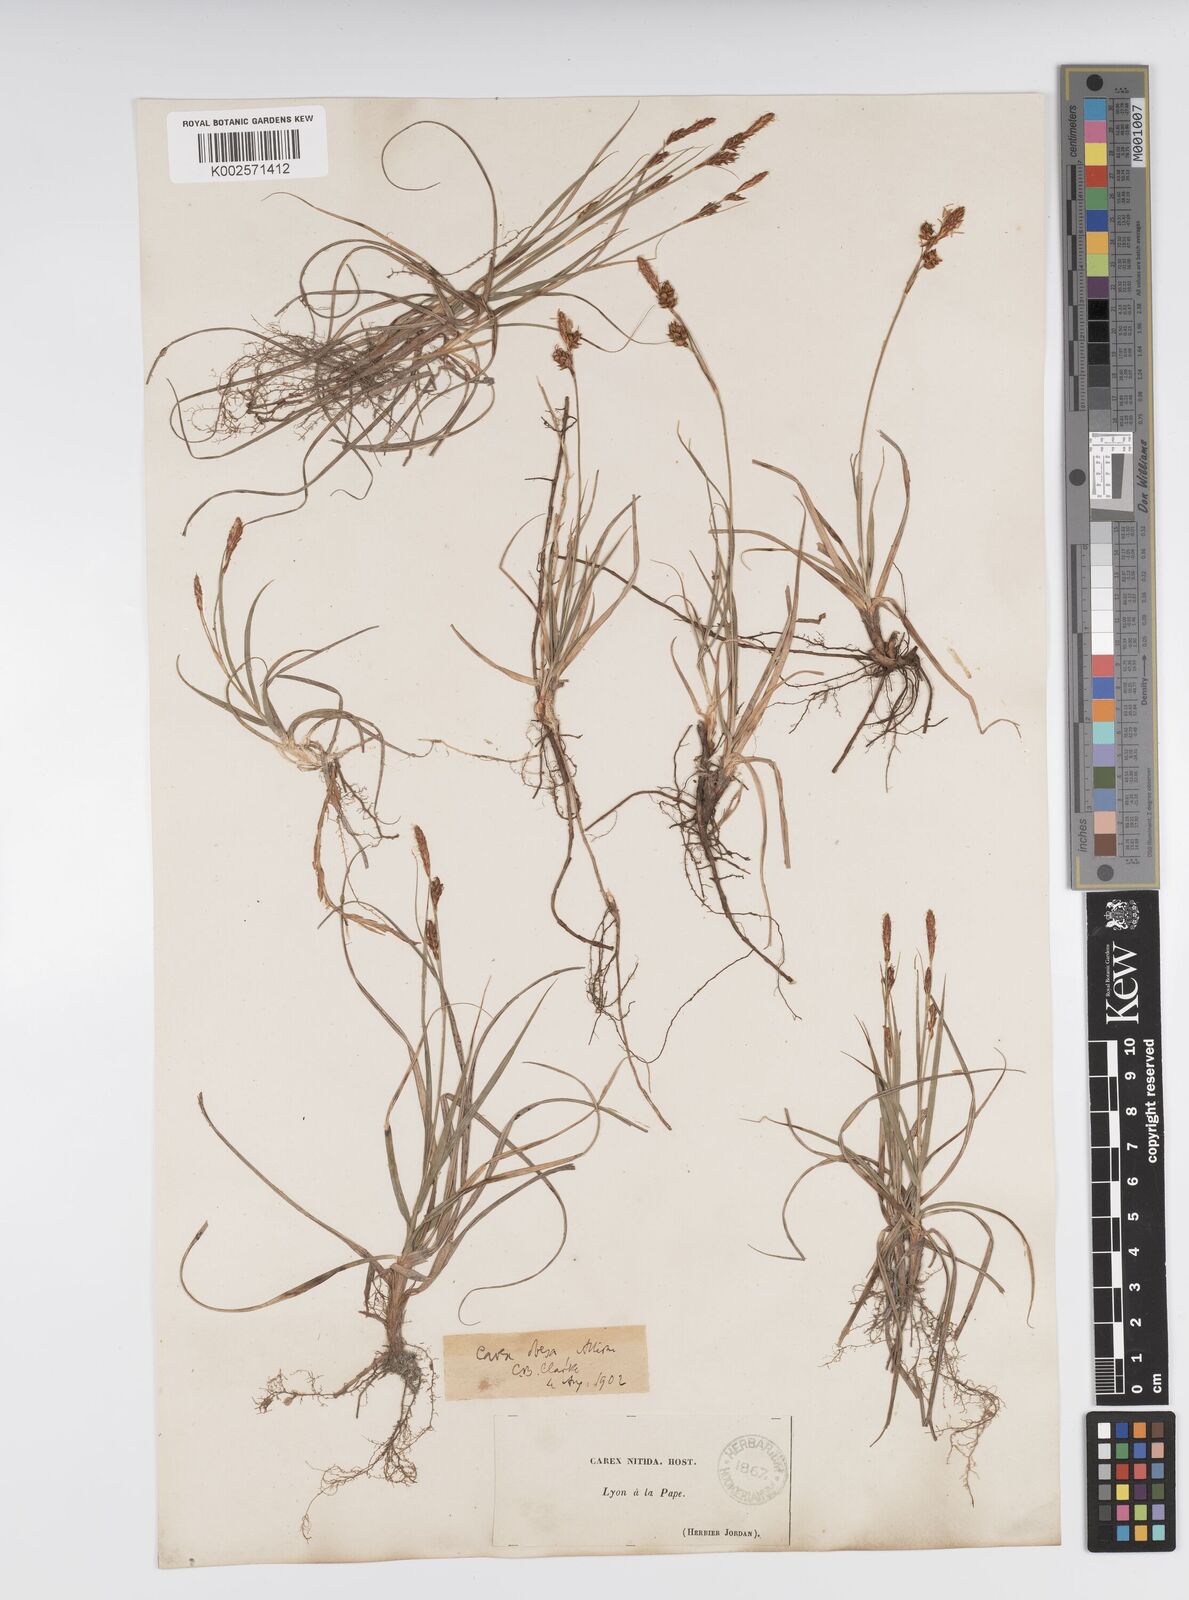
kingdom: Plantae
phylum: Tracheophyta
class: Liliopsida
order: Poales
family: Cyperaceae
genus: Carex
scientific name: Carex liparocarpos
